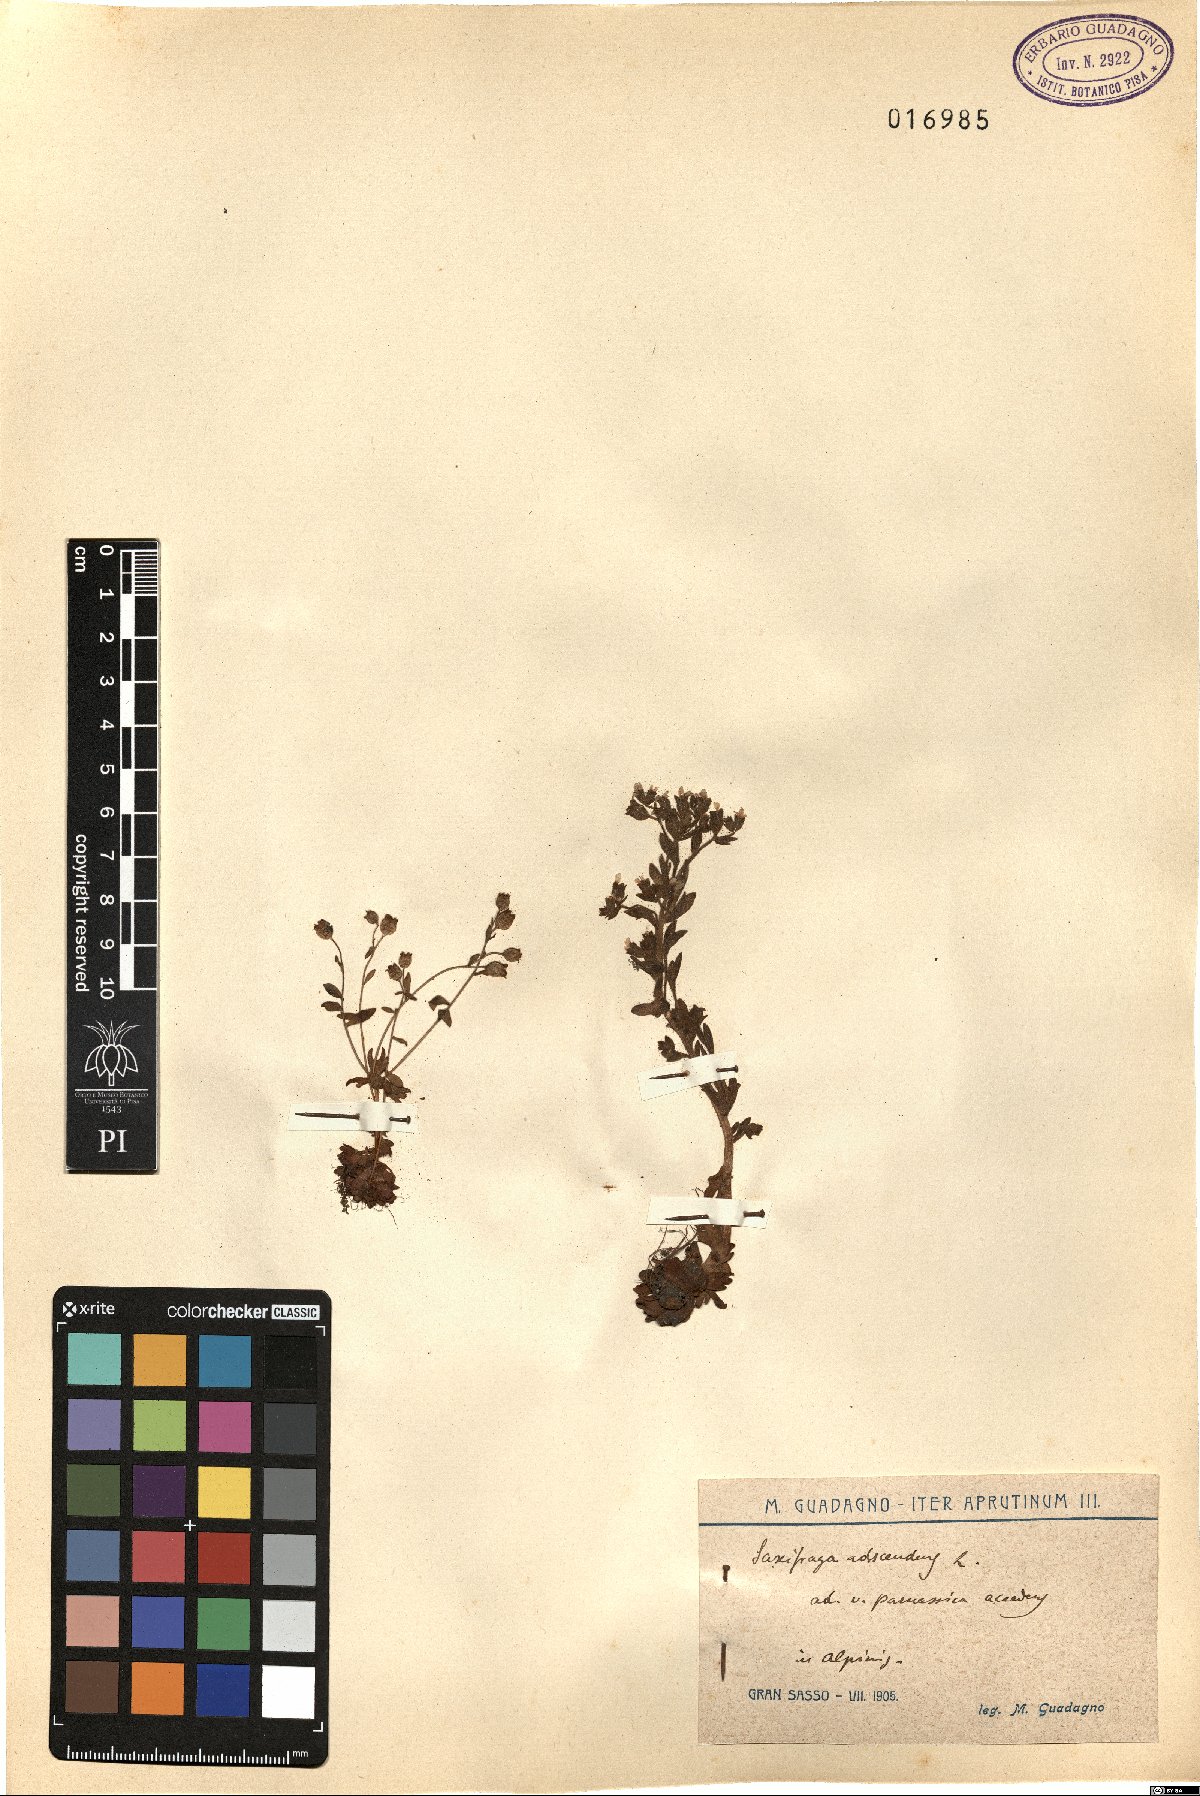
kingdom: Plantae
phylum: Tracheophyta
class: Magnoliopsida
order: Saxifragales
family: Saxifragaceae
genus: Saxifraga
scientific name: Saxifraga adscendens
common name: Ascending saxifrage
